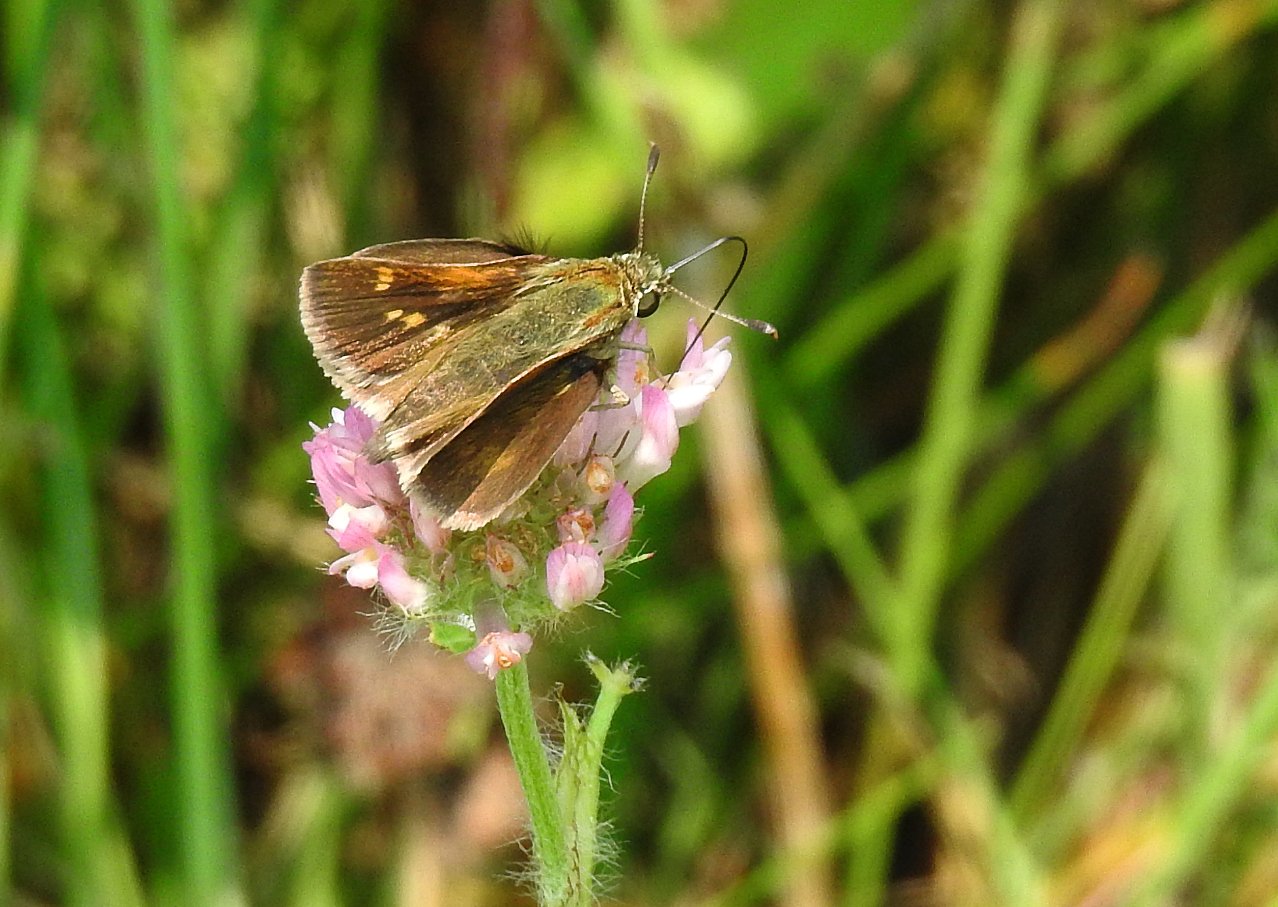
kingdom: Animalia
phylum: Arthropoda
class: Insecta
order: Lepidoptera
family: Hesperiidae
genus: Polites
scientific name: Polites themistocles
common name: Tawny-edged Skipper
